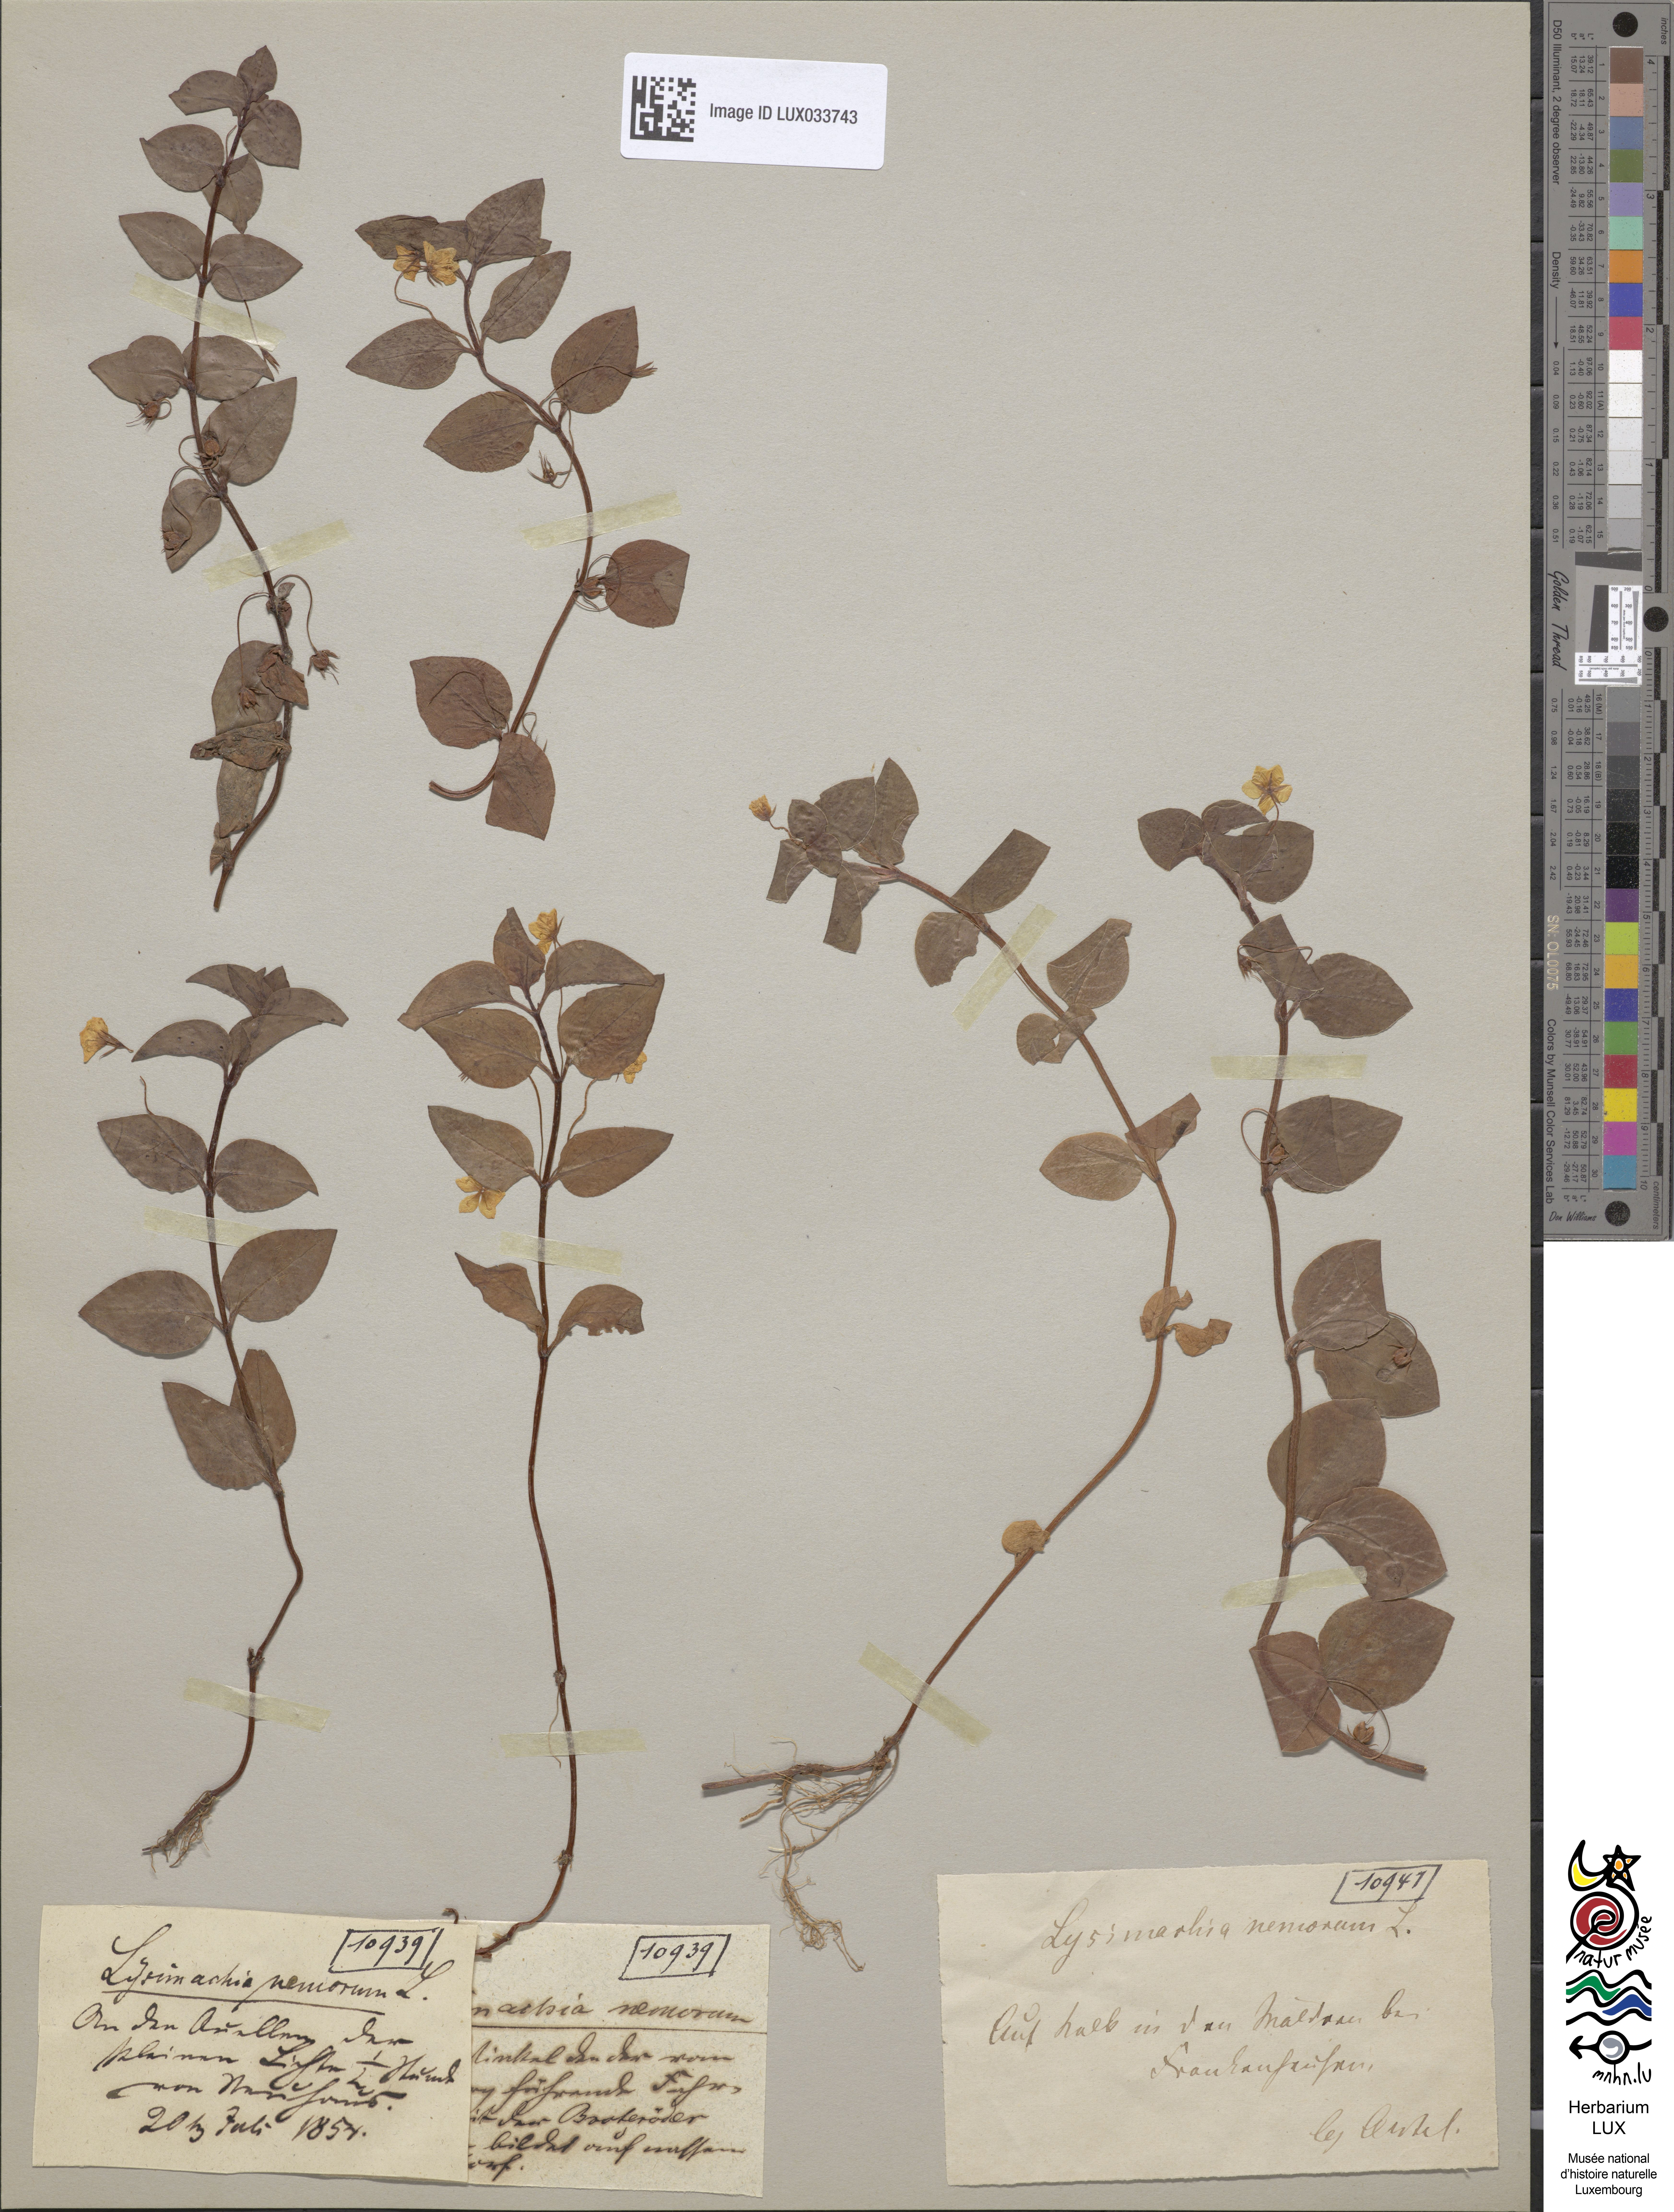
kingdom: Plantae
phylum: Tracheophyta
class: Magnoliopsida
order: Ericales
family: Primulaceae
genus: Lysimachia
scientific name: Lysimachia nemorum
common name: Yellow pimpernel
